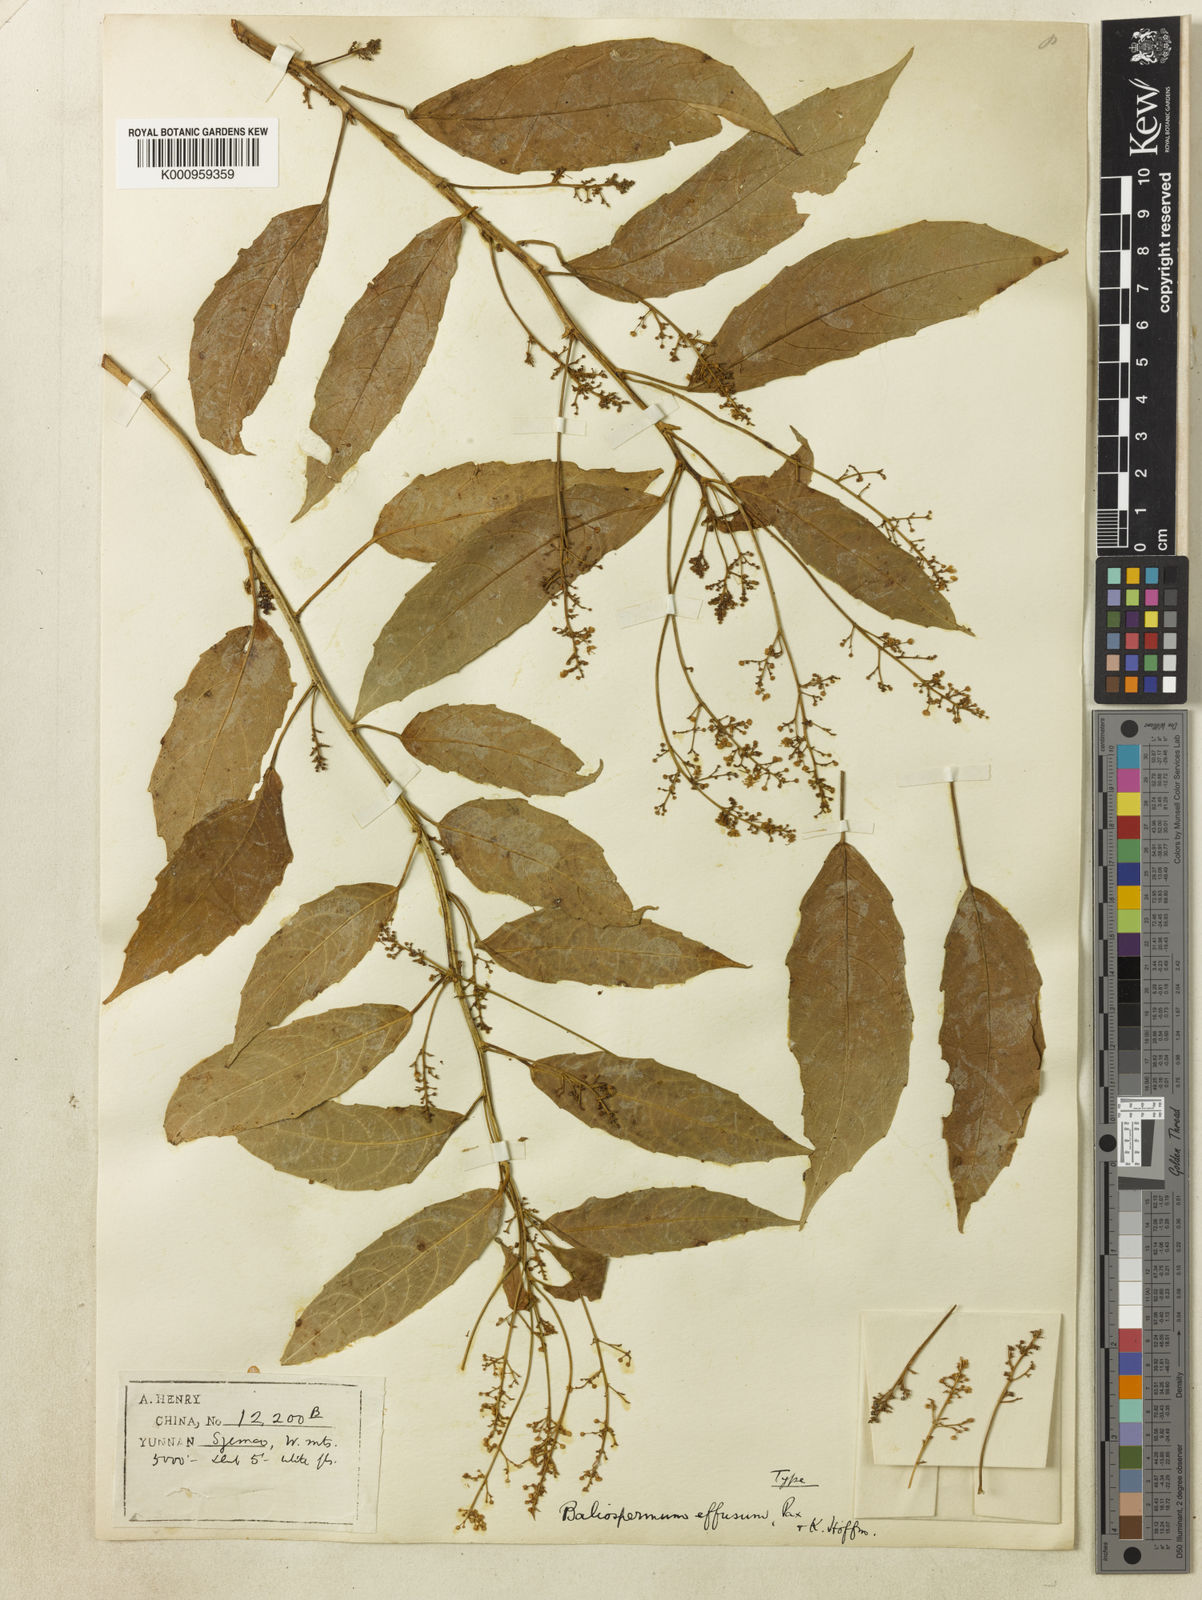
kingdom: Plantae
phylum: Tracheophyta
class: Magnoliopsida
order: Malpighiales
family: Euphorbiaceae
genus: Baliospermum
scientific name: Baliospermum calycinum
